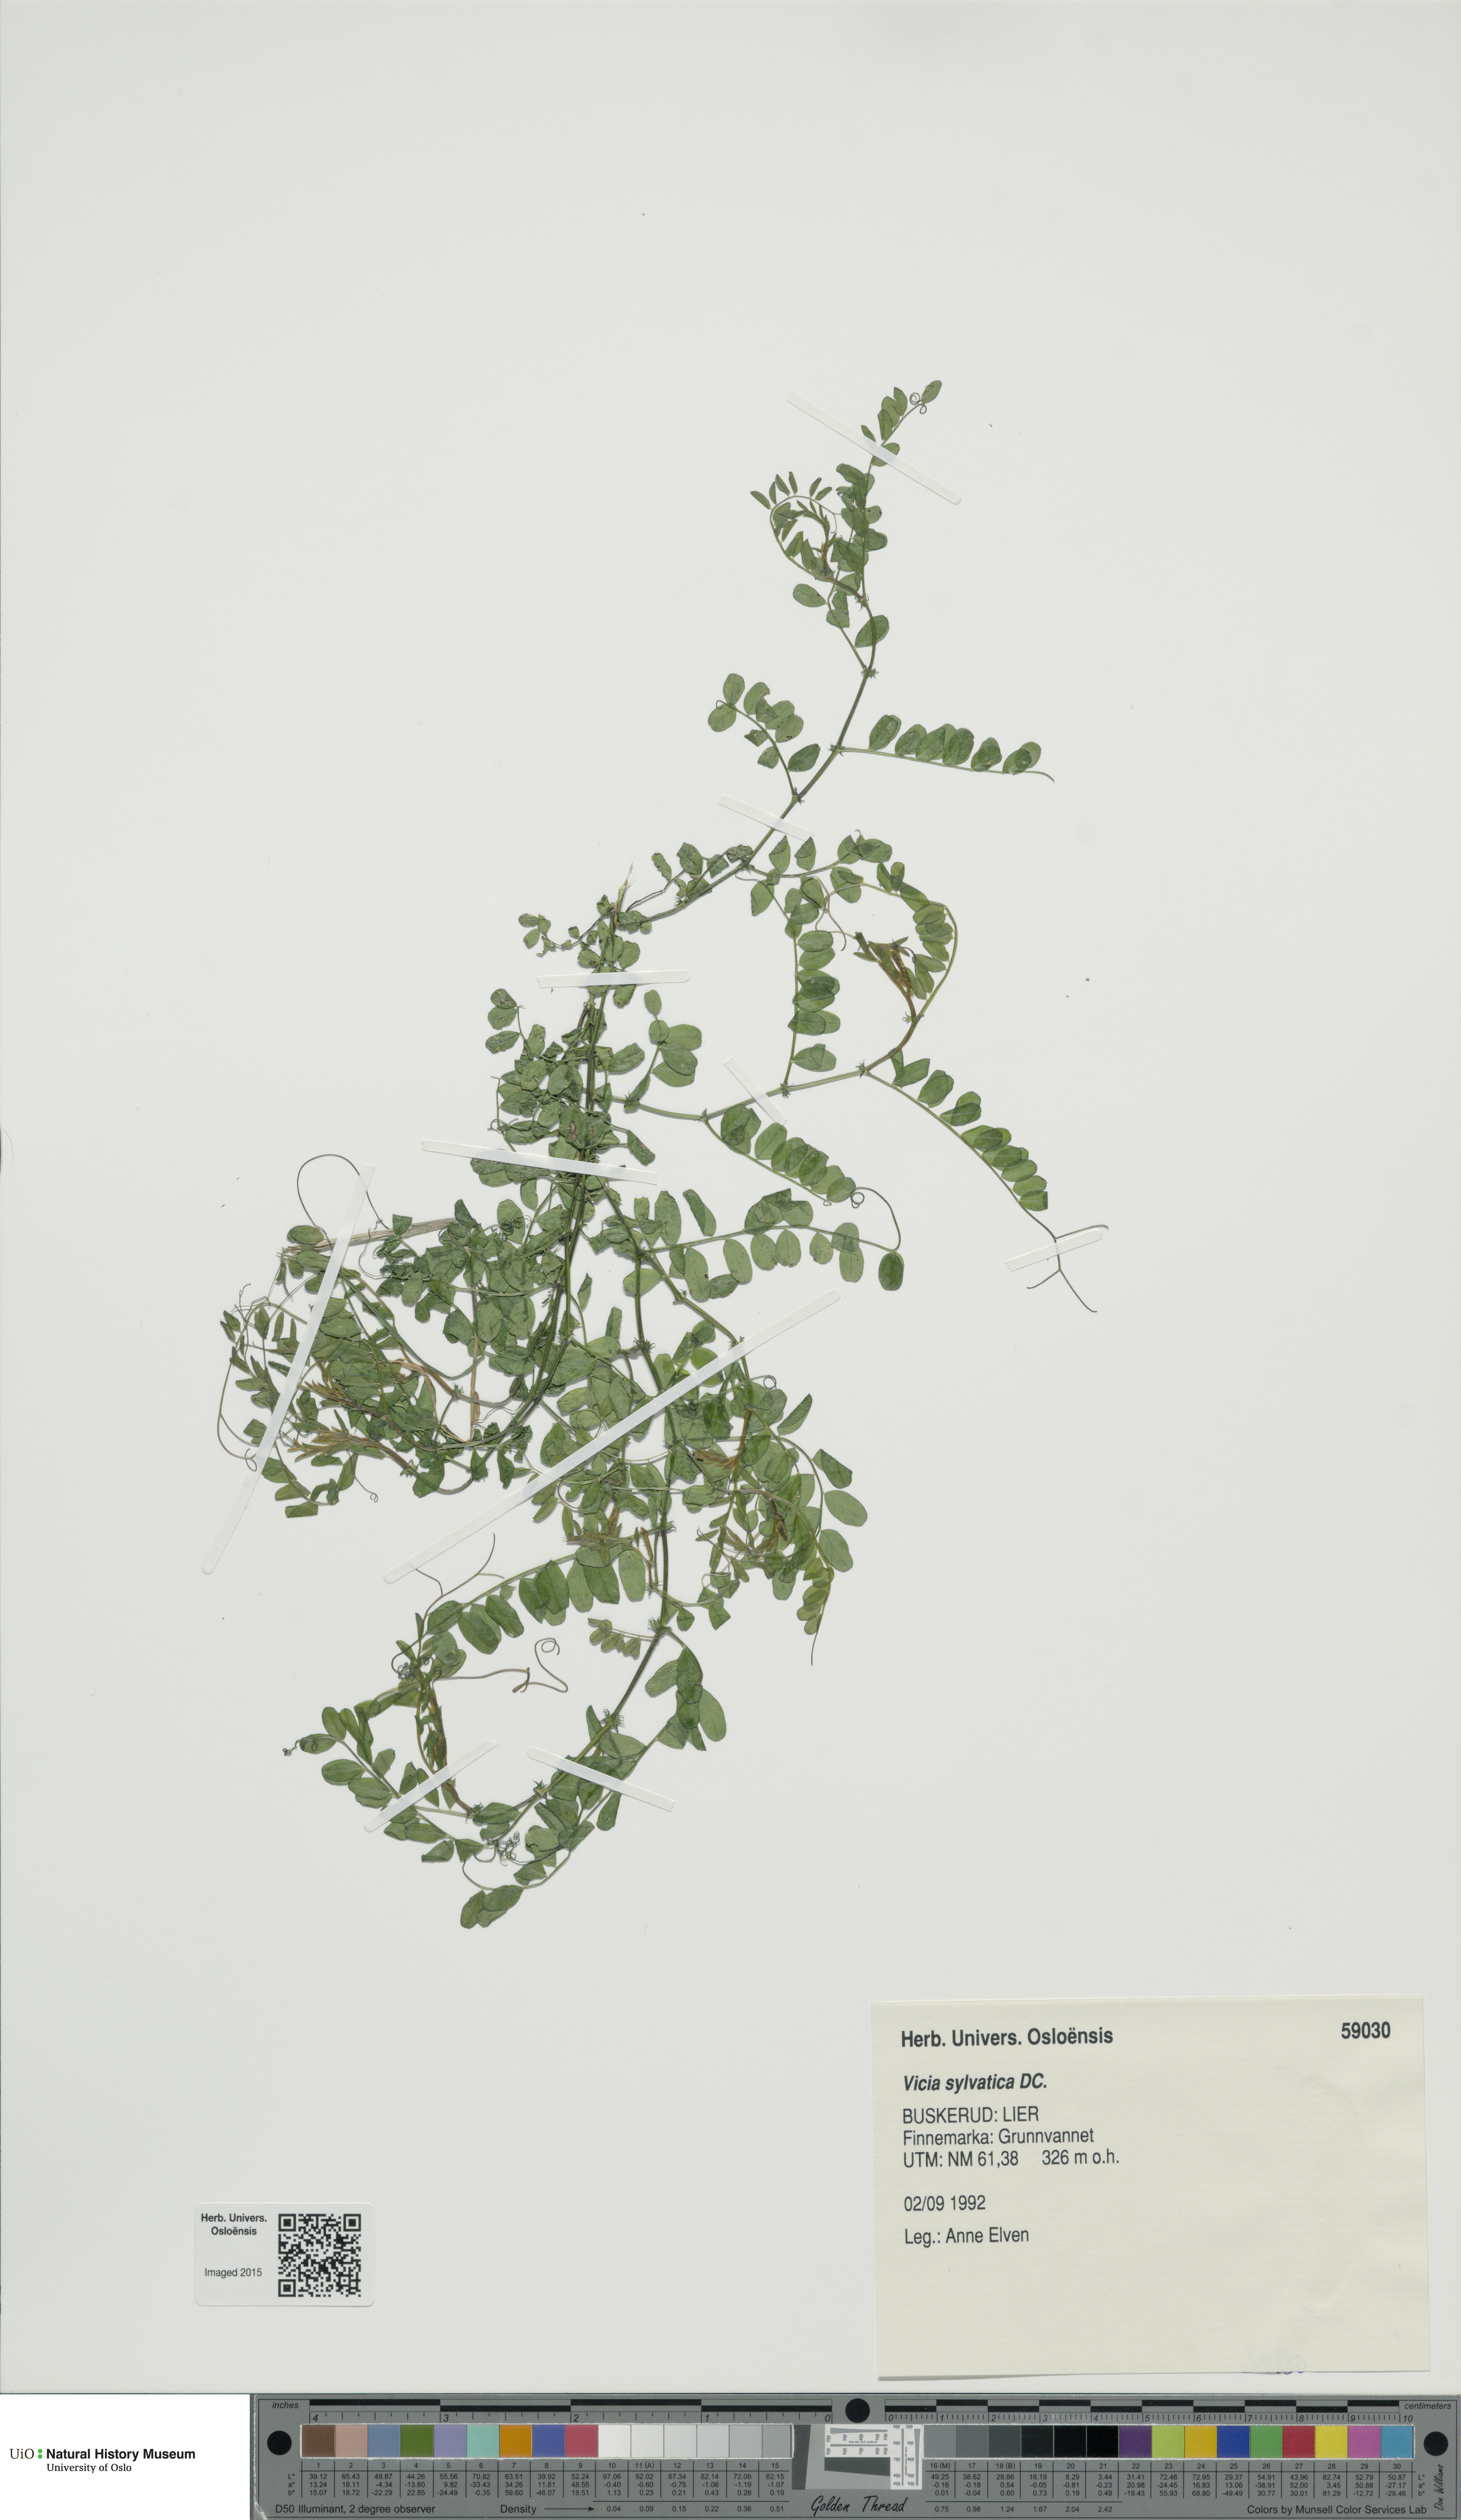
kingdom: Plantae
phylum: Tracheophyta
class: Magnoliopsida
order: Fabales
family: Fabaceae
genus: Vicia
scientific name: Vicia sylvatica
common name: Wood vetch
